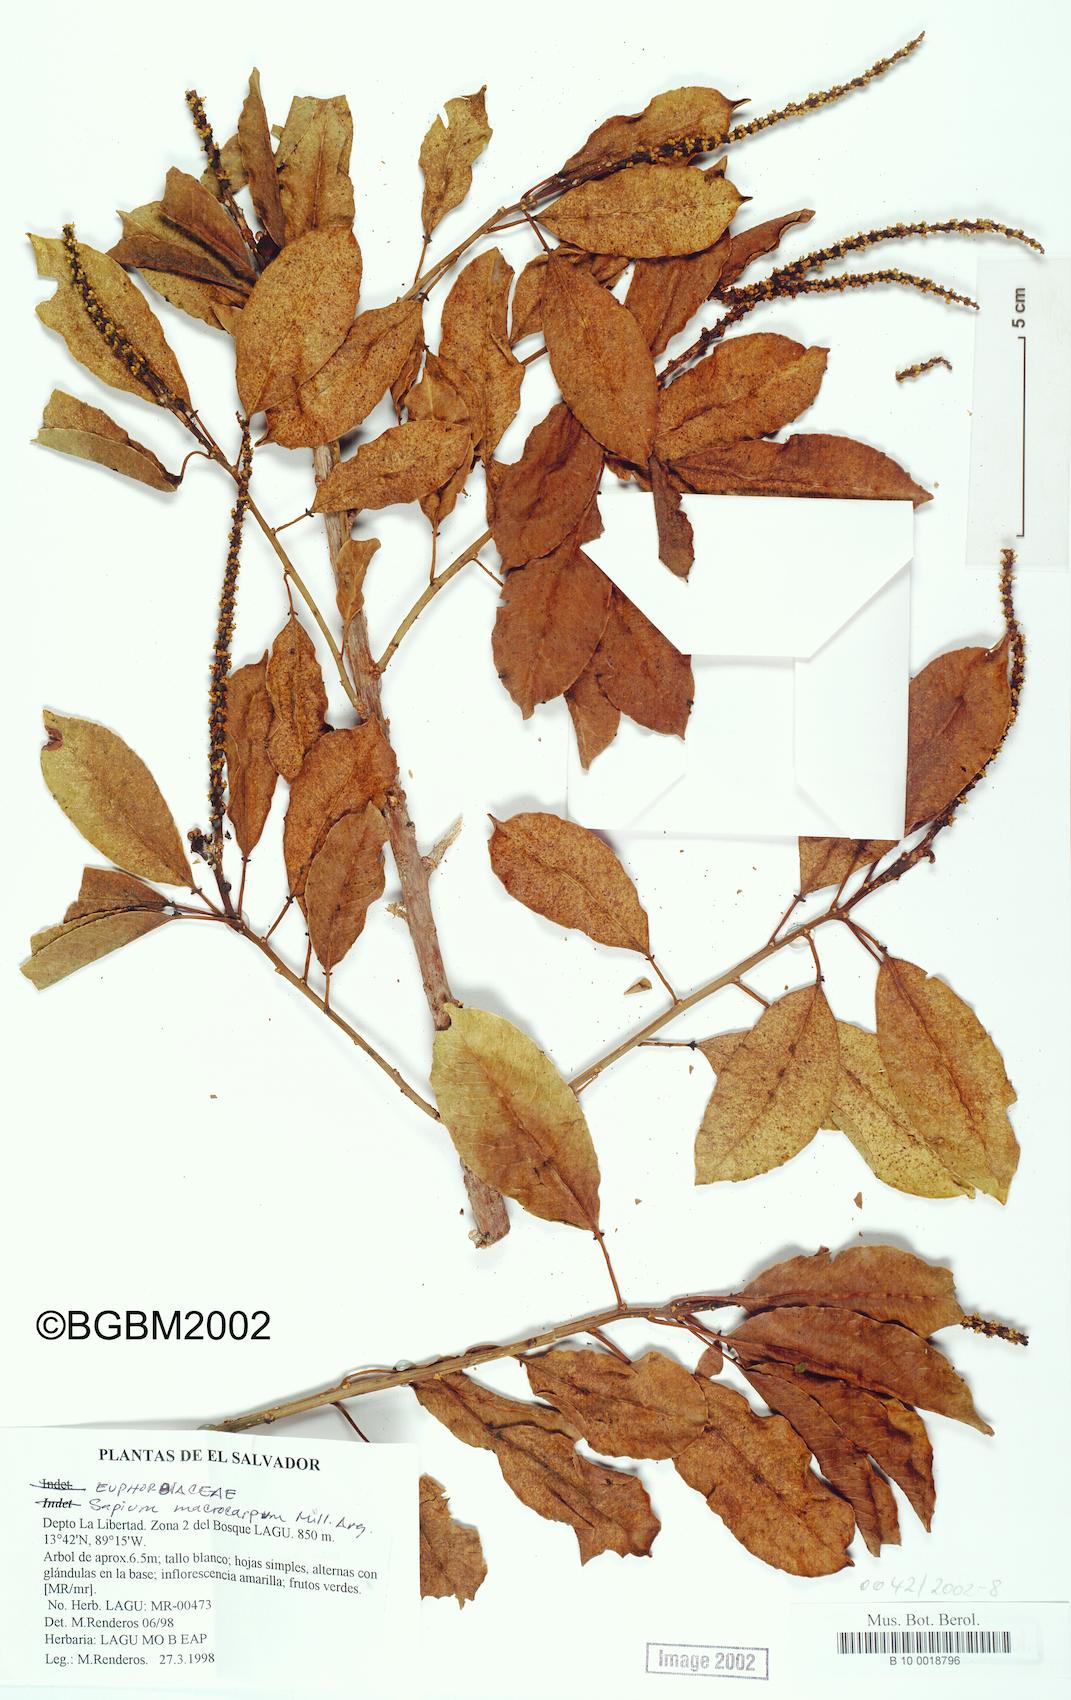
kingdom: Plantae
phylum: Tracheophyta
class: Magnoliopsida
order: Malpighiales
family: Euphorbiaceae
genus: Sapium
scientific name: Sapium macrocarpum
